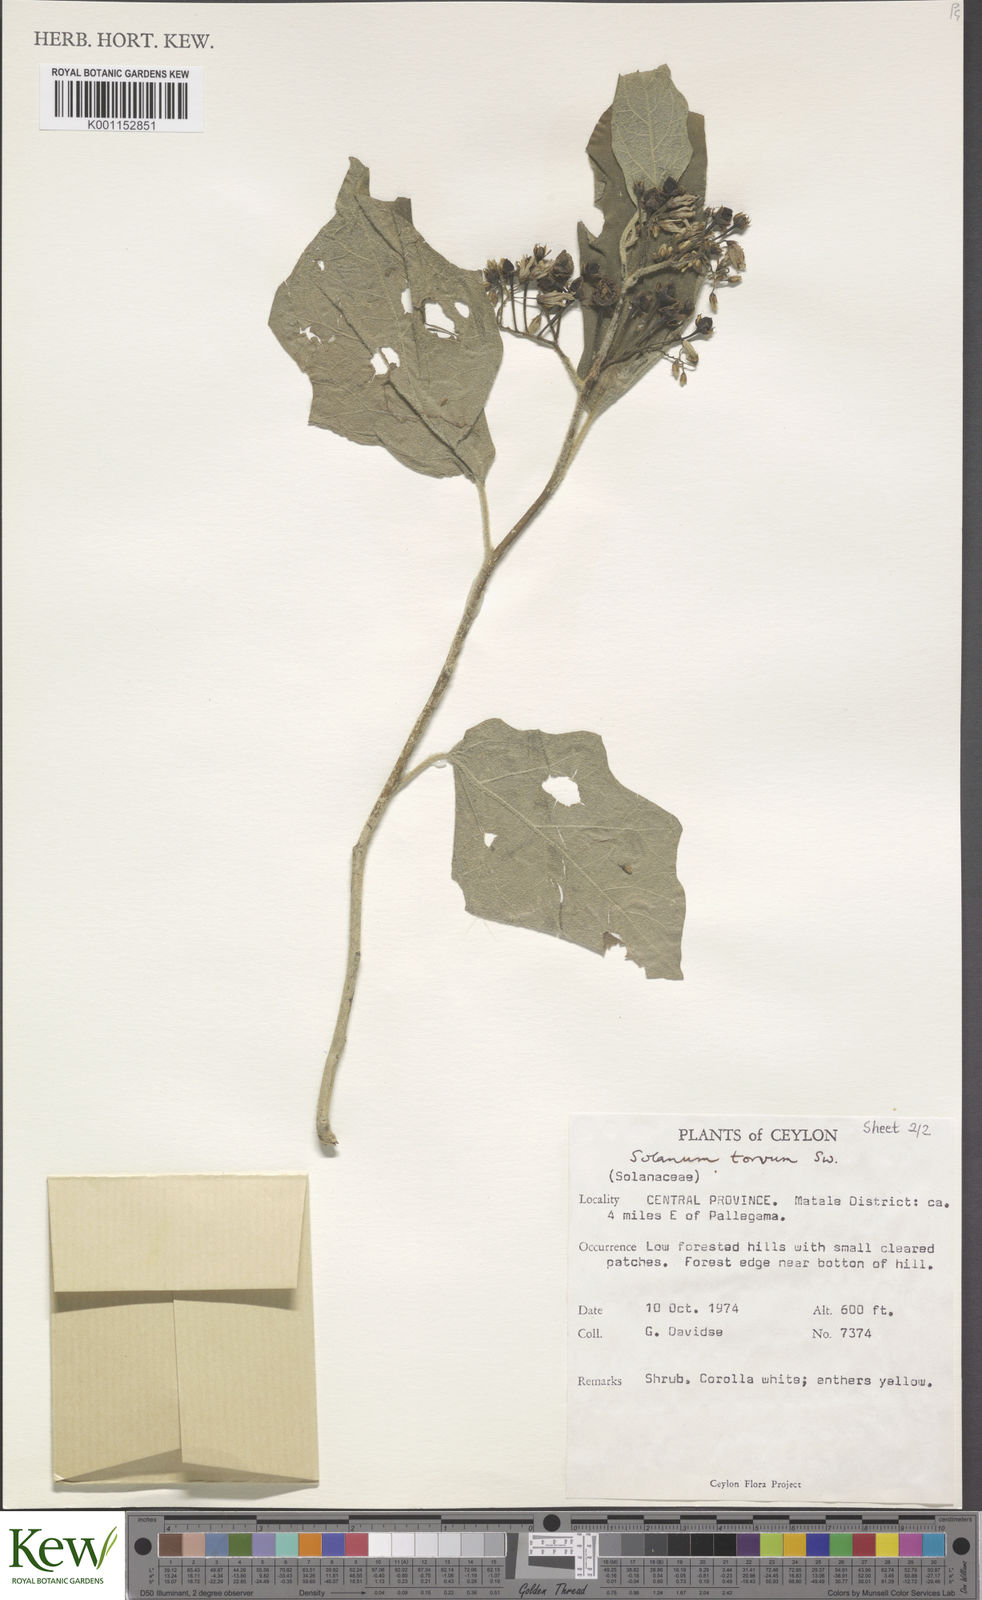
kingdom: Plantae
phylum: Tracheophyta
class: Magnoliopsida
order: Solanales
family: Solanaceae
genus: Solanum
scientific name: Solanum torvum
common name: Turkey berry
